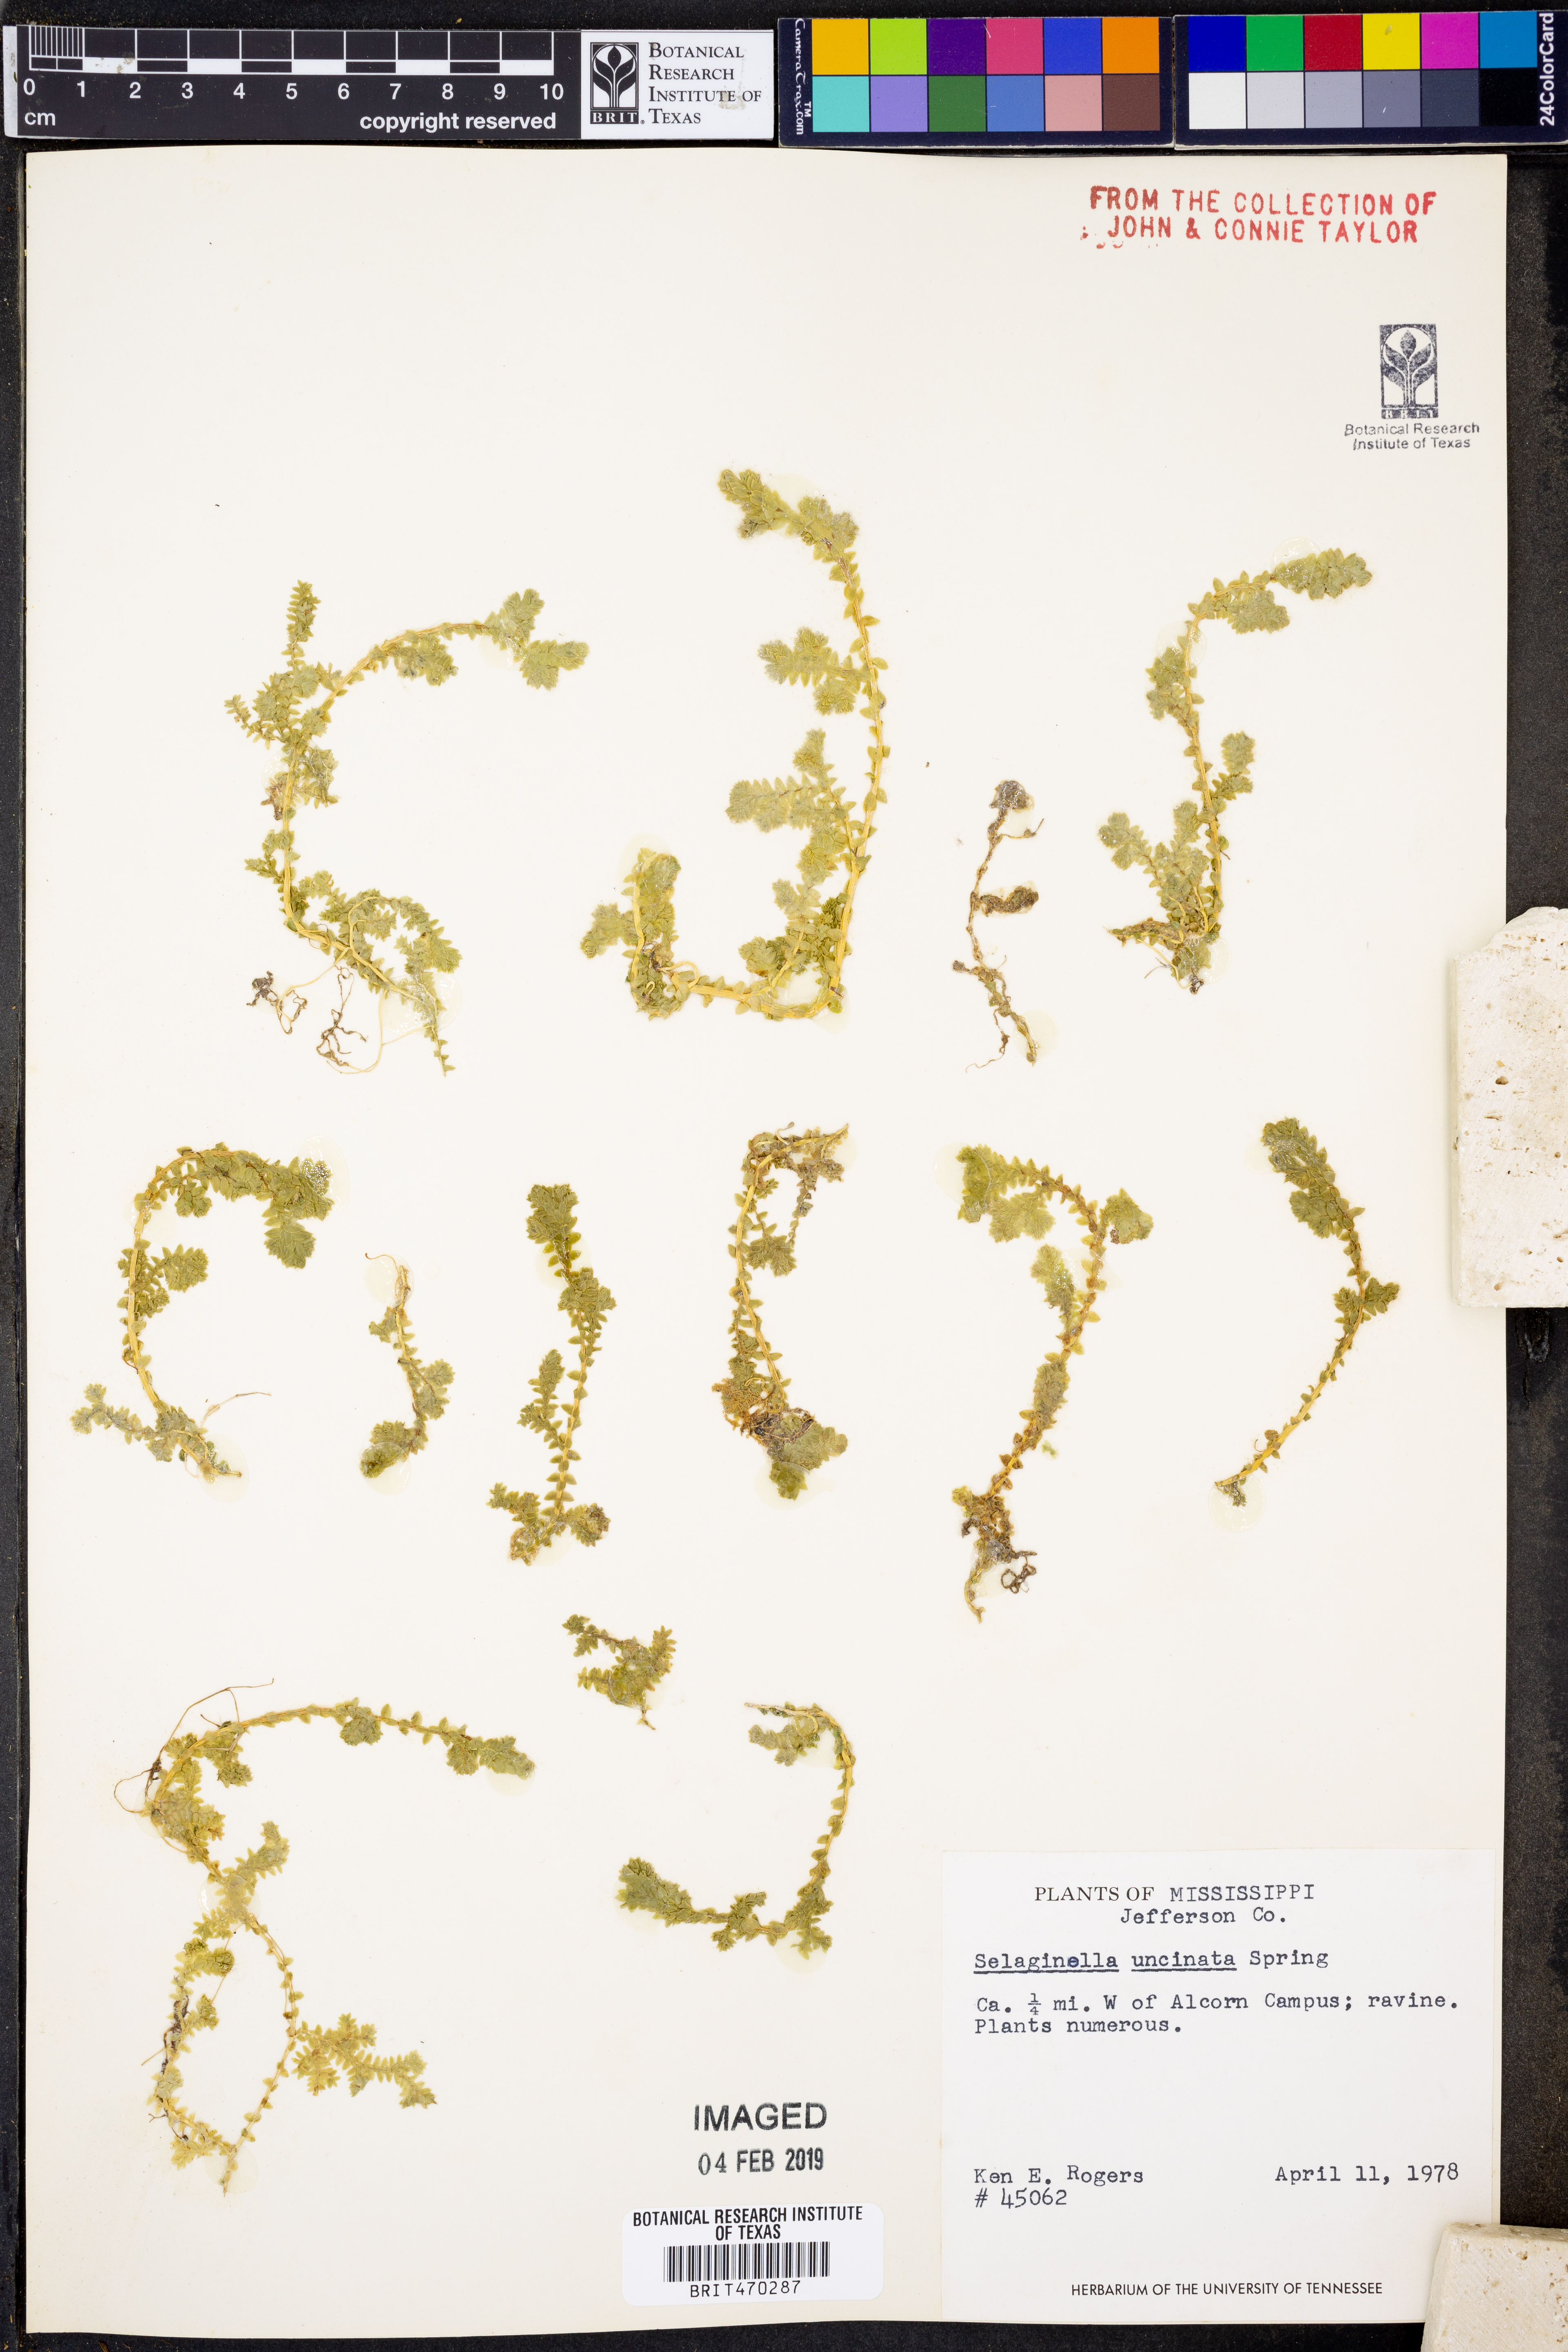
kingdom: Plantae
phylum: Tracheophyta
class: Lycopodiopsida
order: Selaginellales
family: Selaginellaceae
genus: Selaginella
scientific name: Selaginella uncinata
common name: Blue spikemoss
